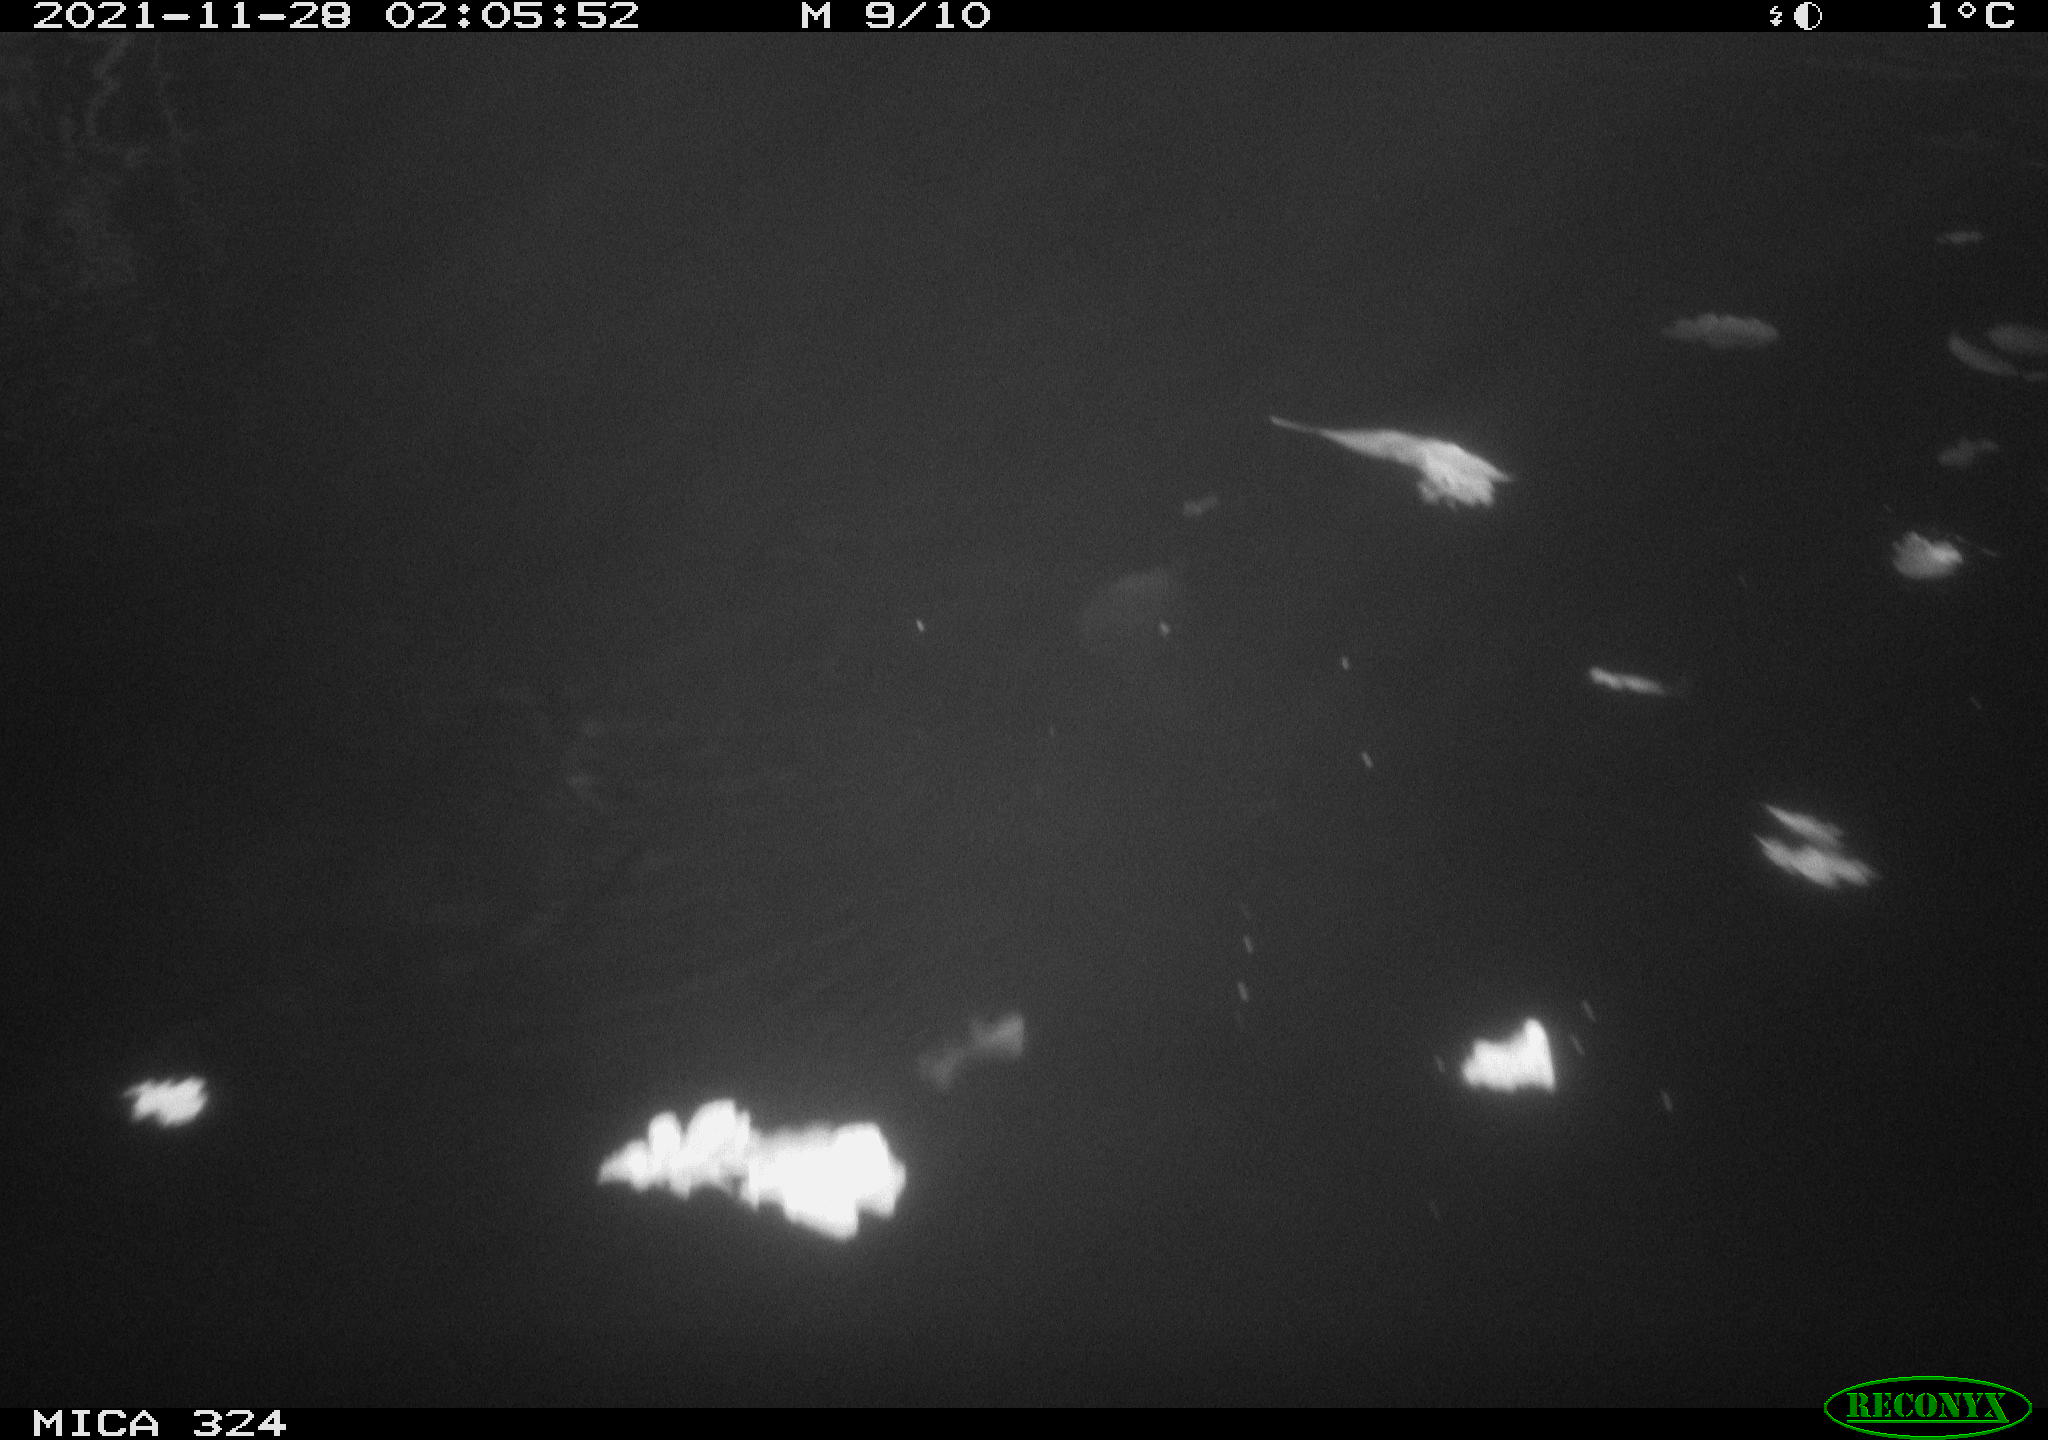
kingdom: Animalia
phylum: Chordata
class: Mammalia
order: Rodentia
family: Cricetidae
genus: Ondatra
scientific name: Ondatra zibethicus
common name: Muskrat
